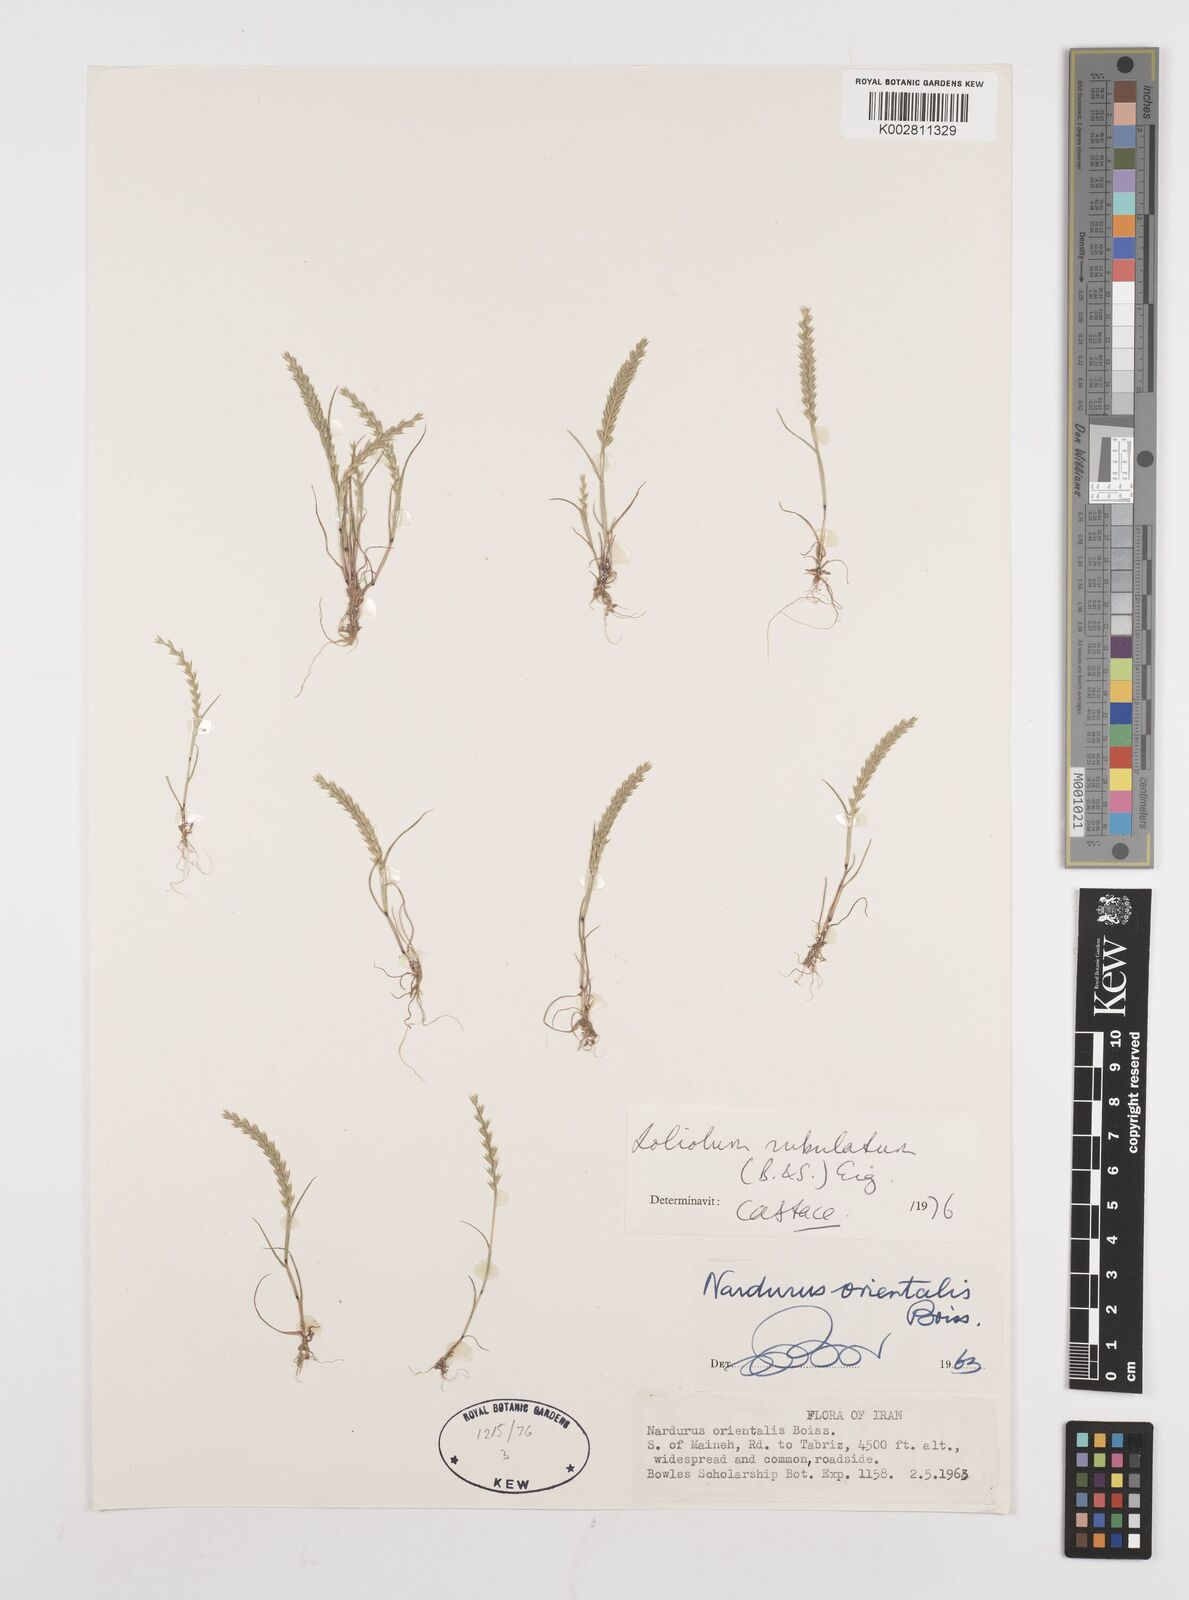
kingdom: Plantae
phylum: Tracheophyta
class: Liliopsida
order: Poales
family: Poaceae
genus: Festuca
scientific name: Festuca orientalis
